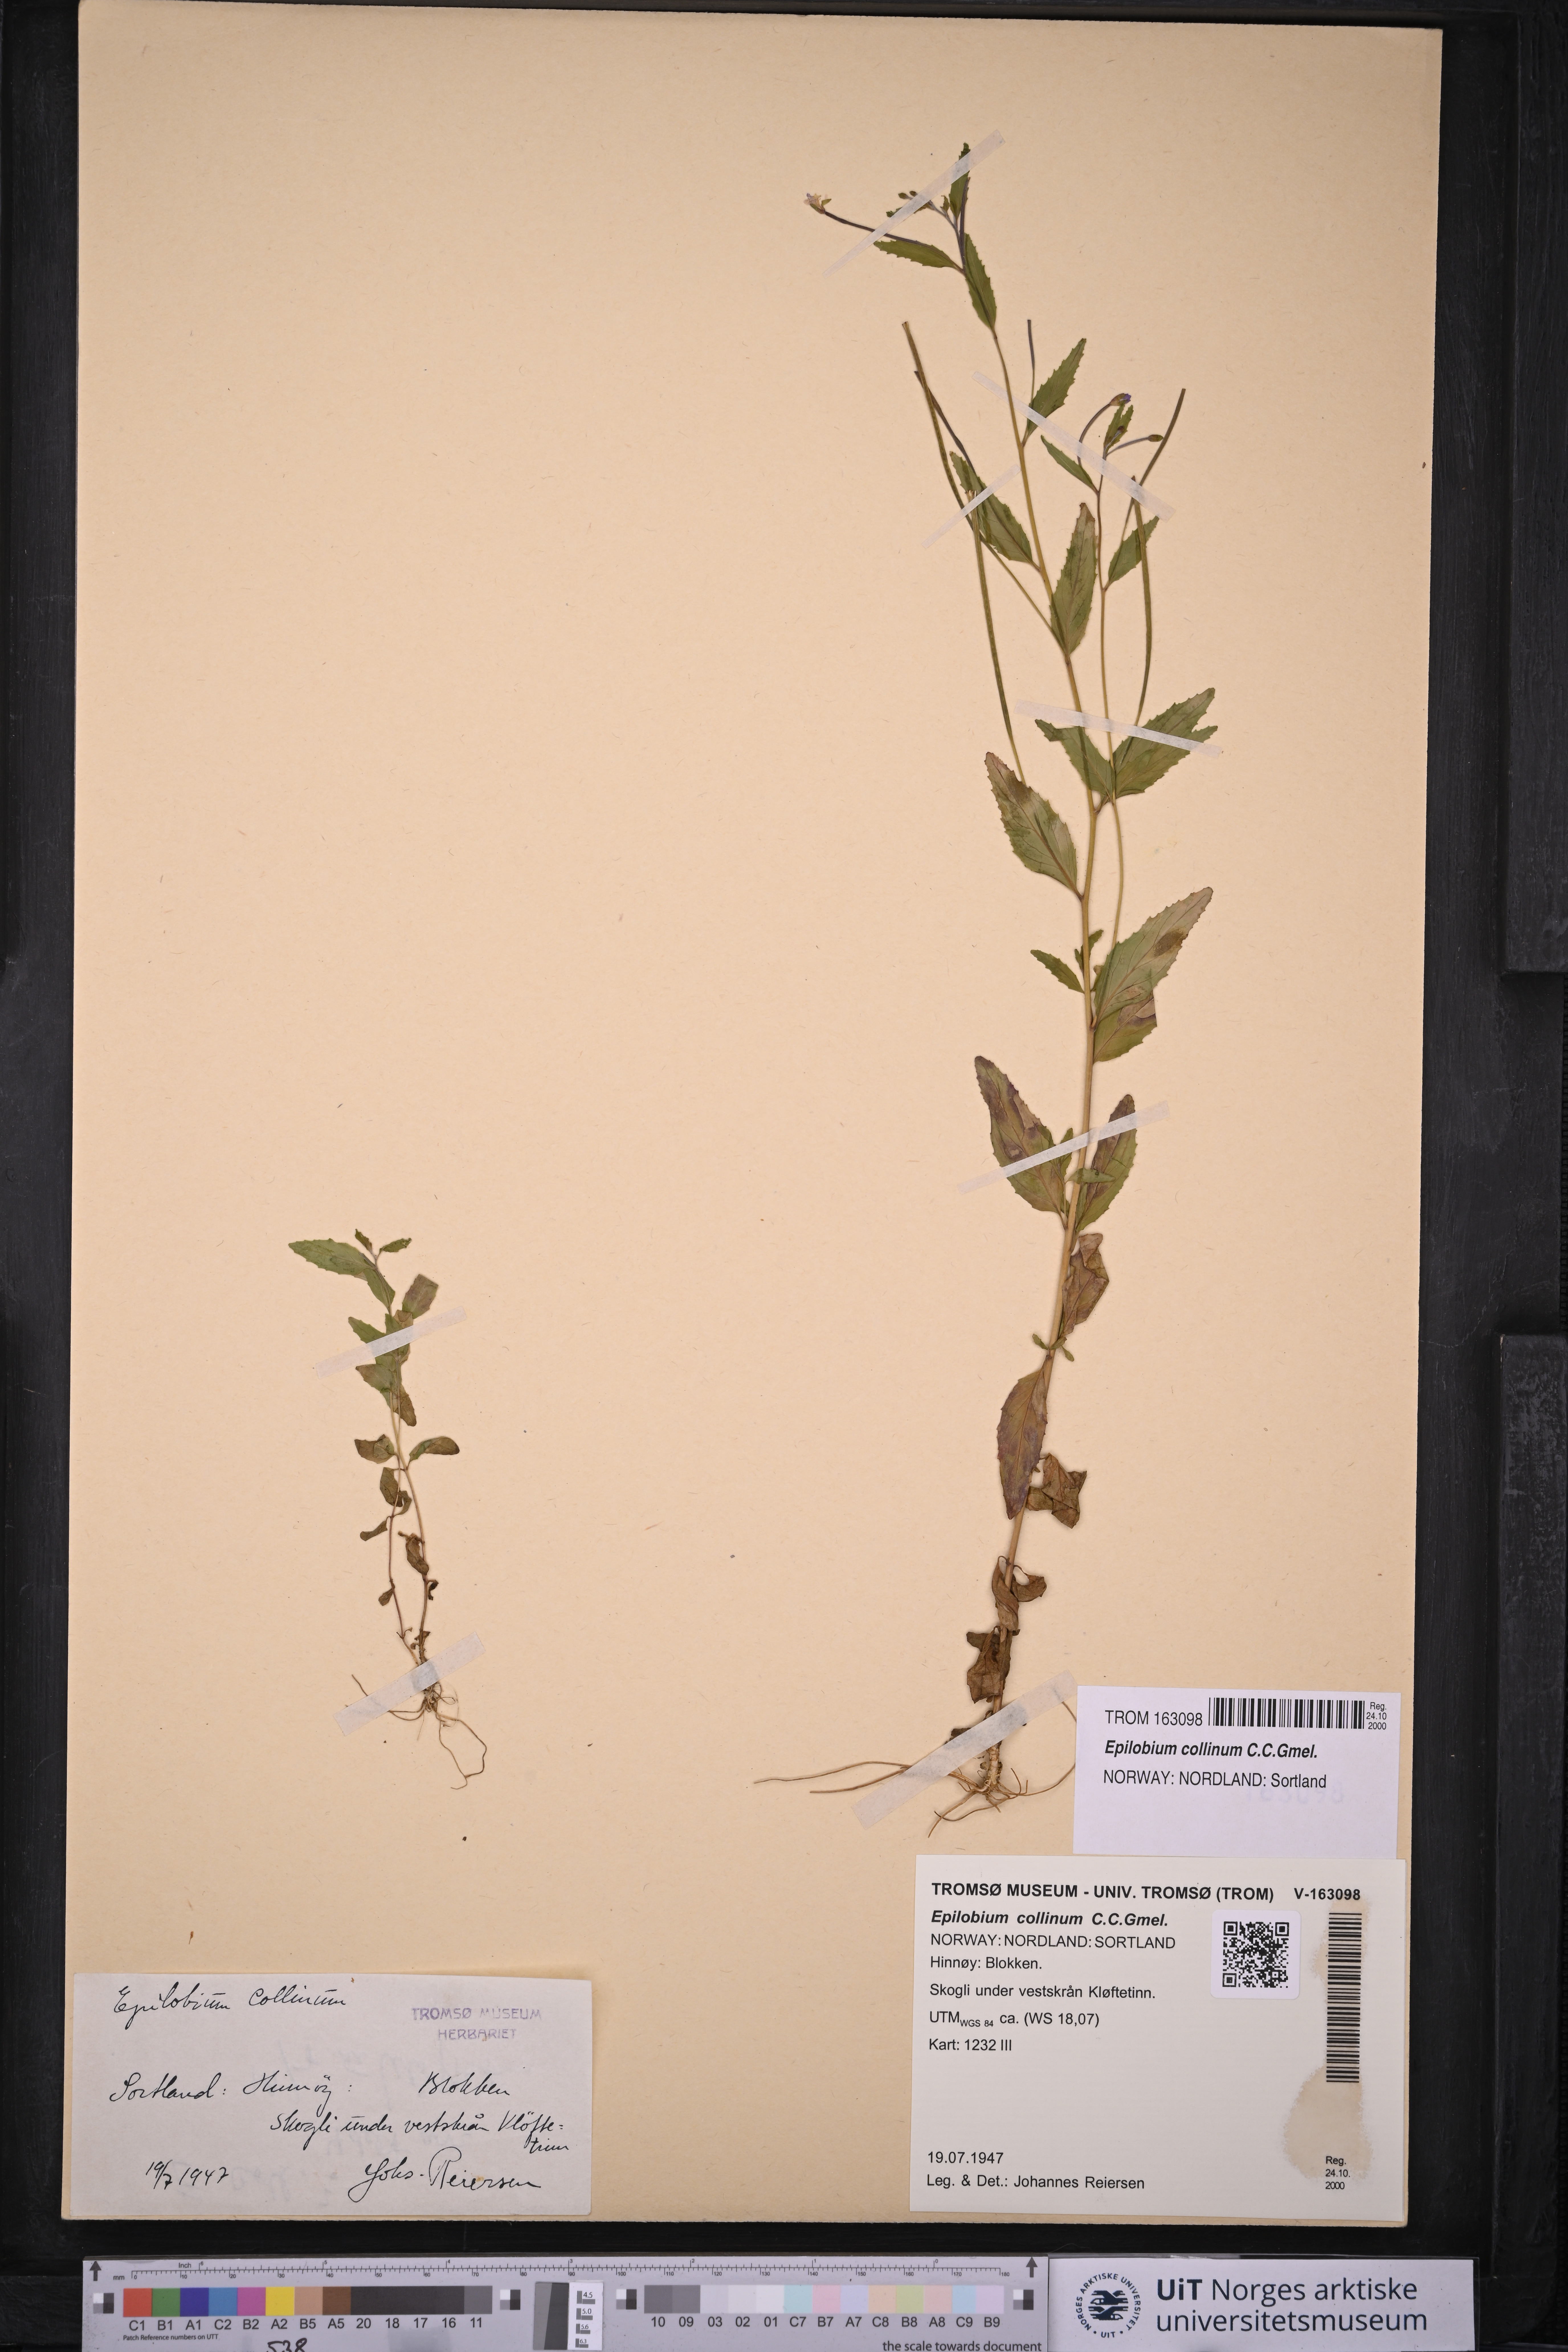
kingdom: Plantae
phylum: Tracheophyta
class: Magnoliopsida
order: Myrtales
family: Onagraceae
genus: Epilobium
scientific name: Epilobium collinum
